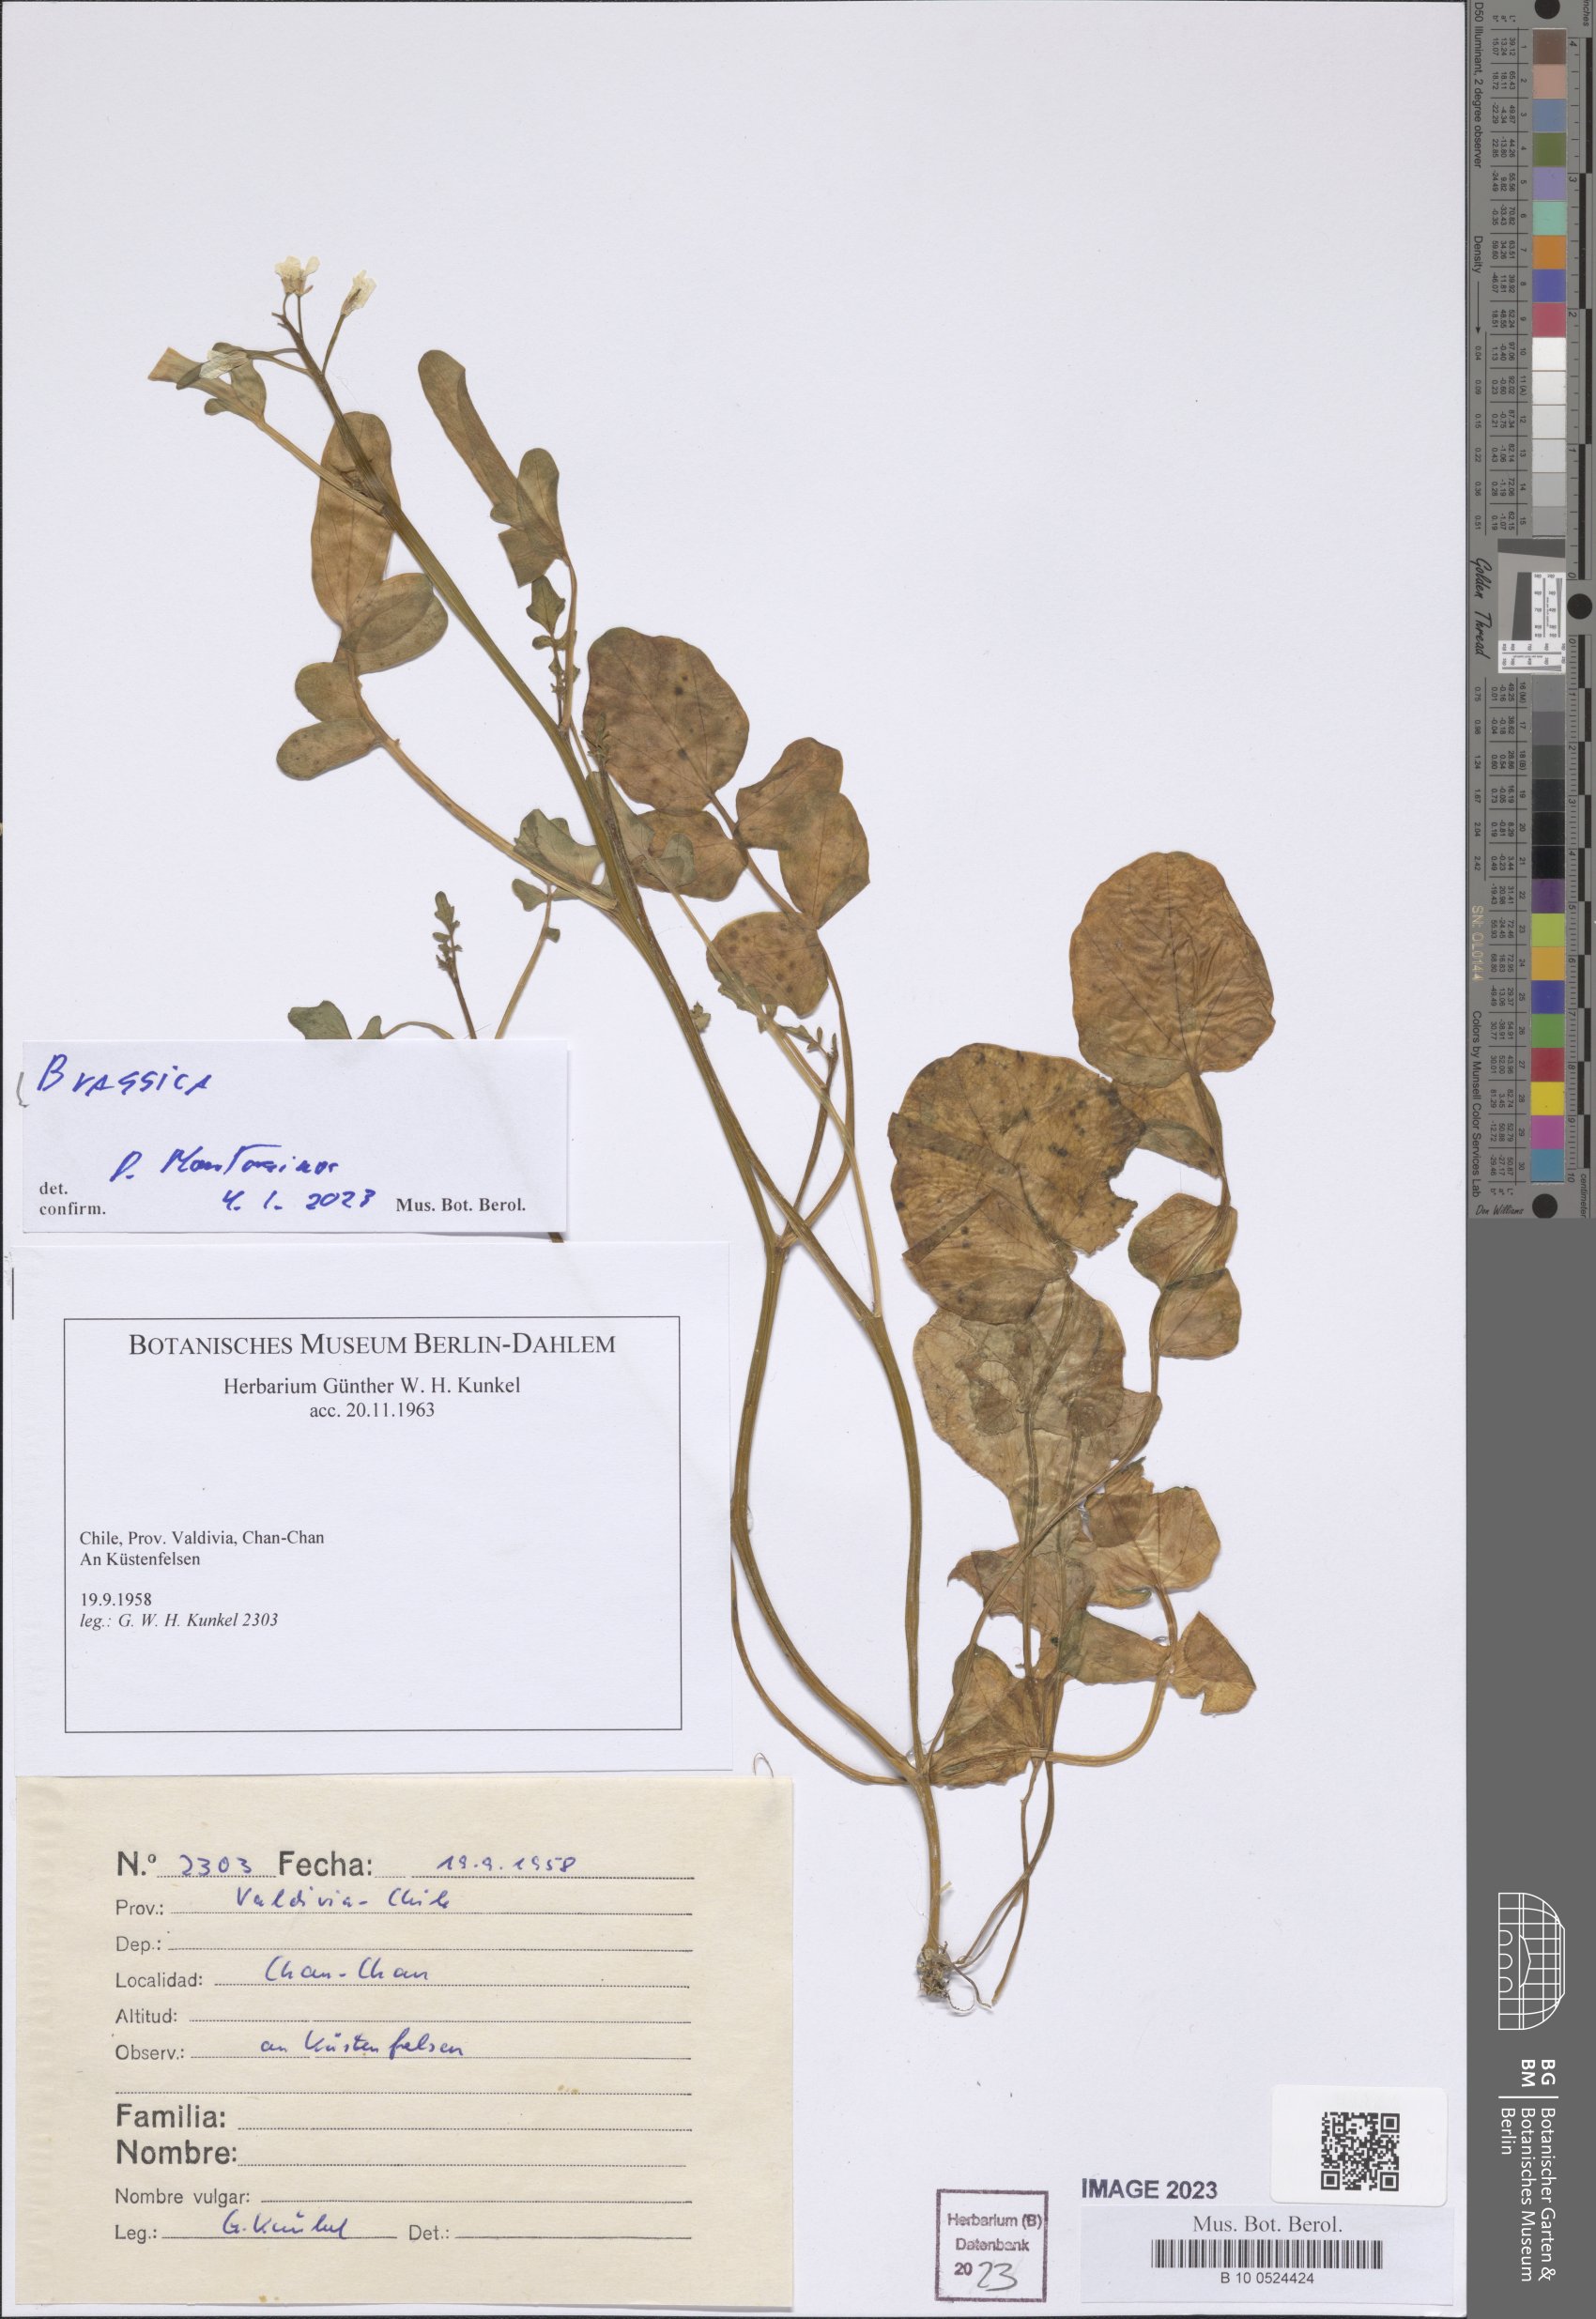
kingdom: Plantae
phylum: Tracheophyta
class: Magnoliopsida
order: Brassicales
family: Brassicaceae
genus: Brassica
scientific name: Brassica
